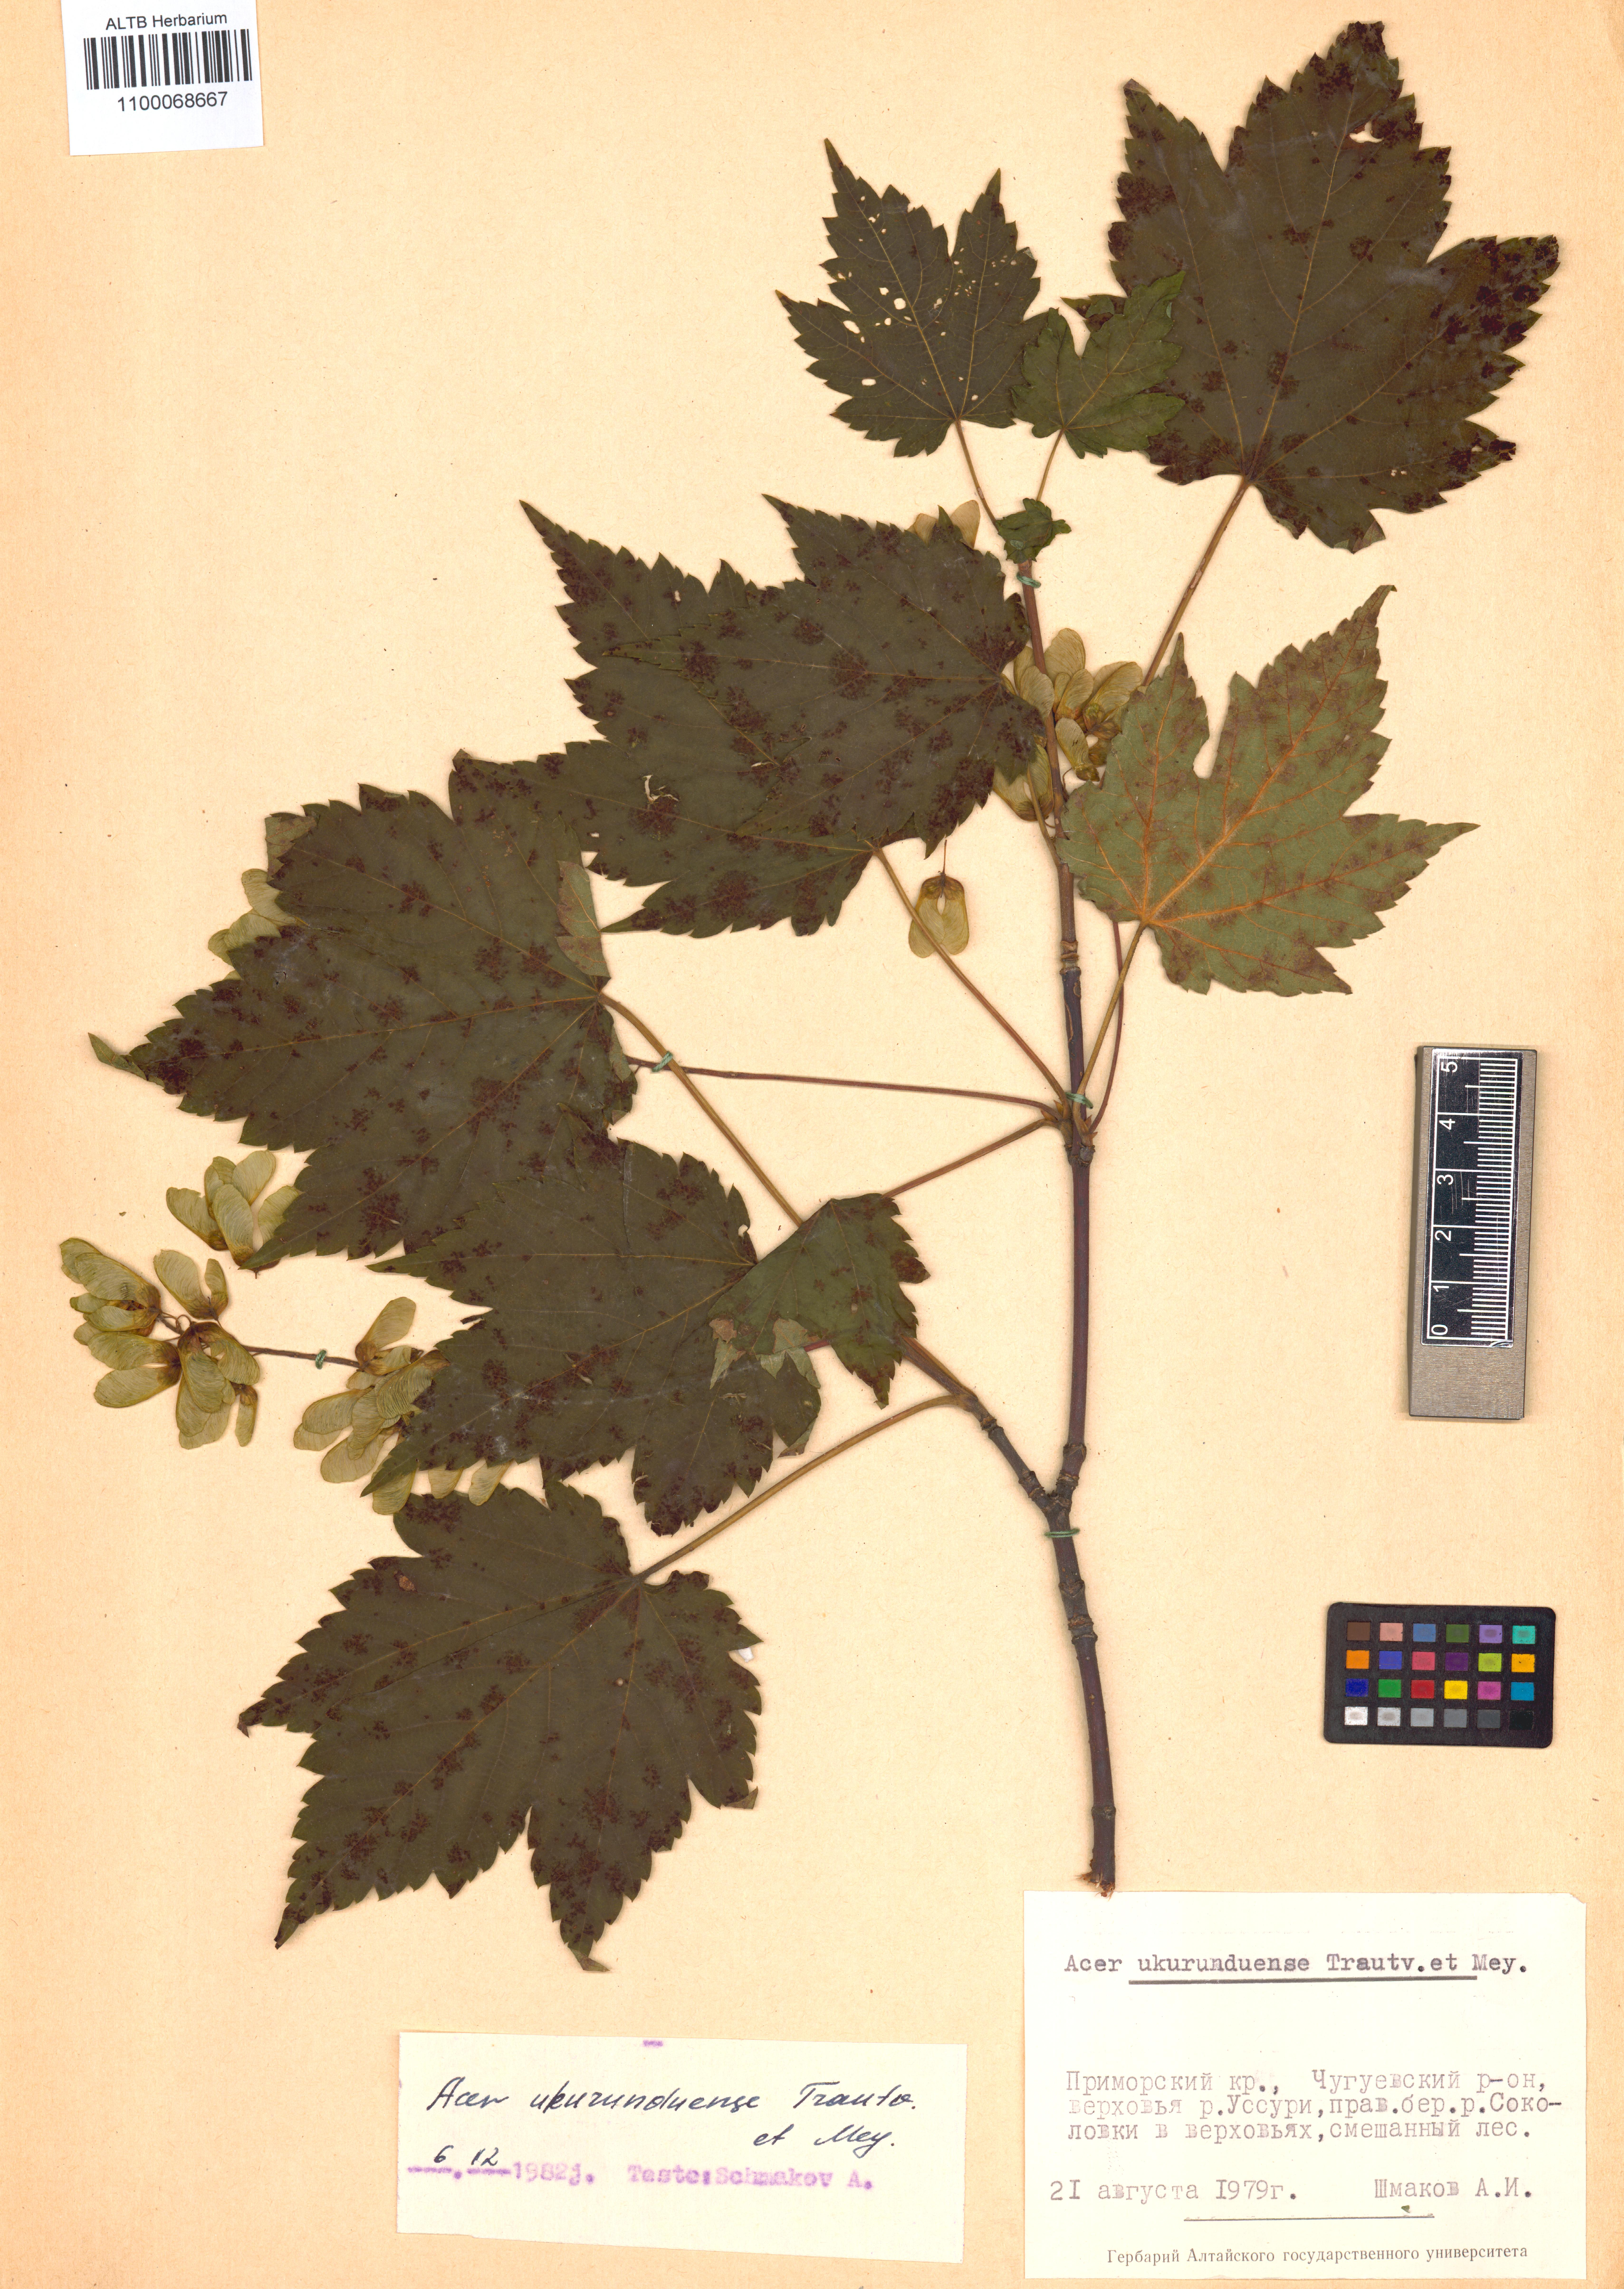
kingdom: Plantae
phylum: Tracheophyta
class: Magnoliopsida
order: Sapindales
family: Sapindaceae
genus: Acer
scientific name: Acer ukurunduense
